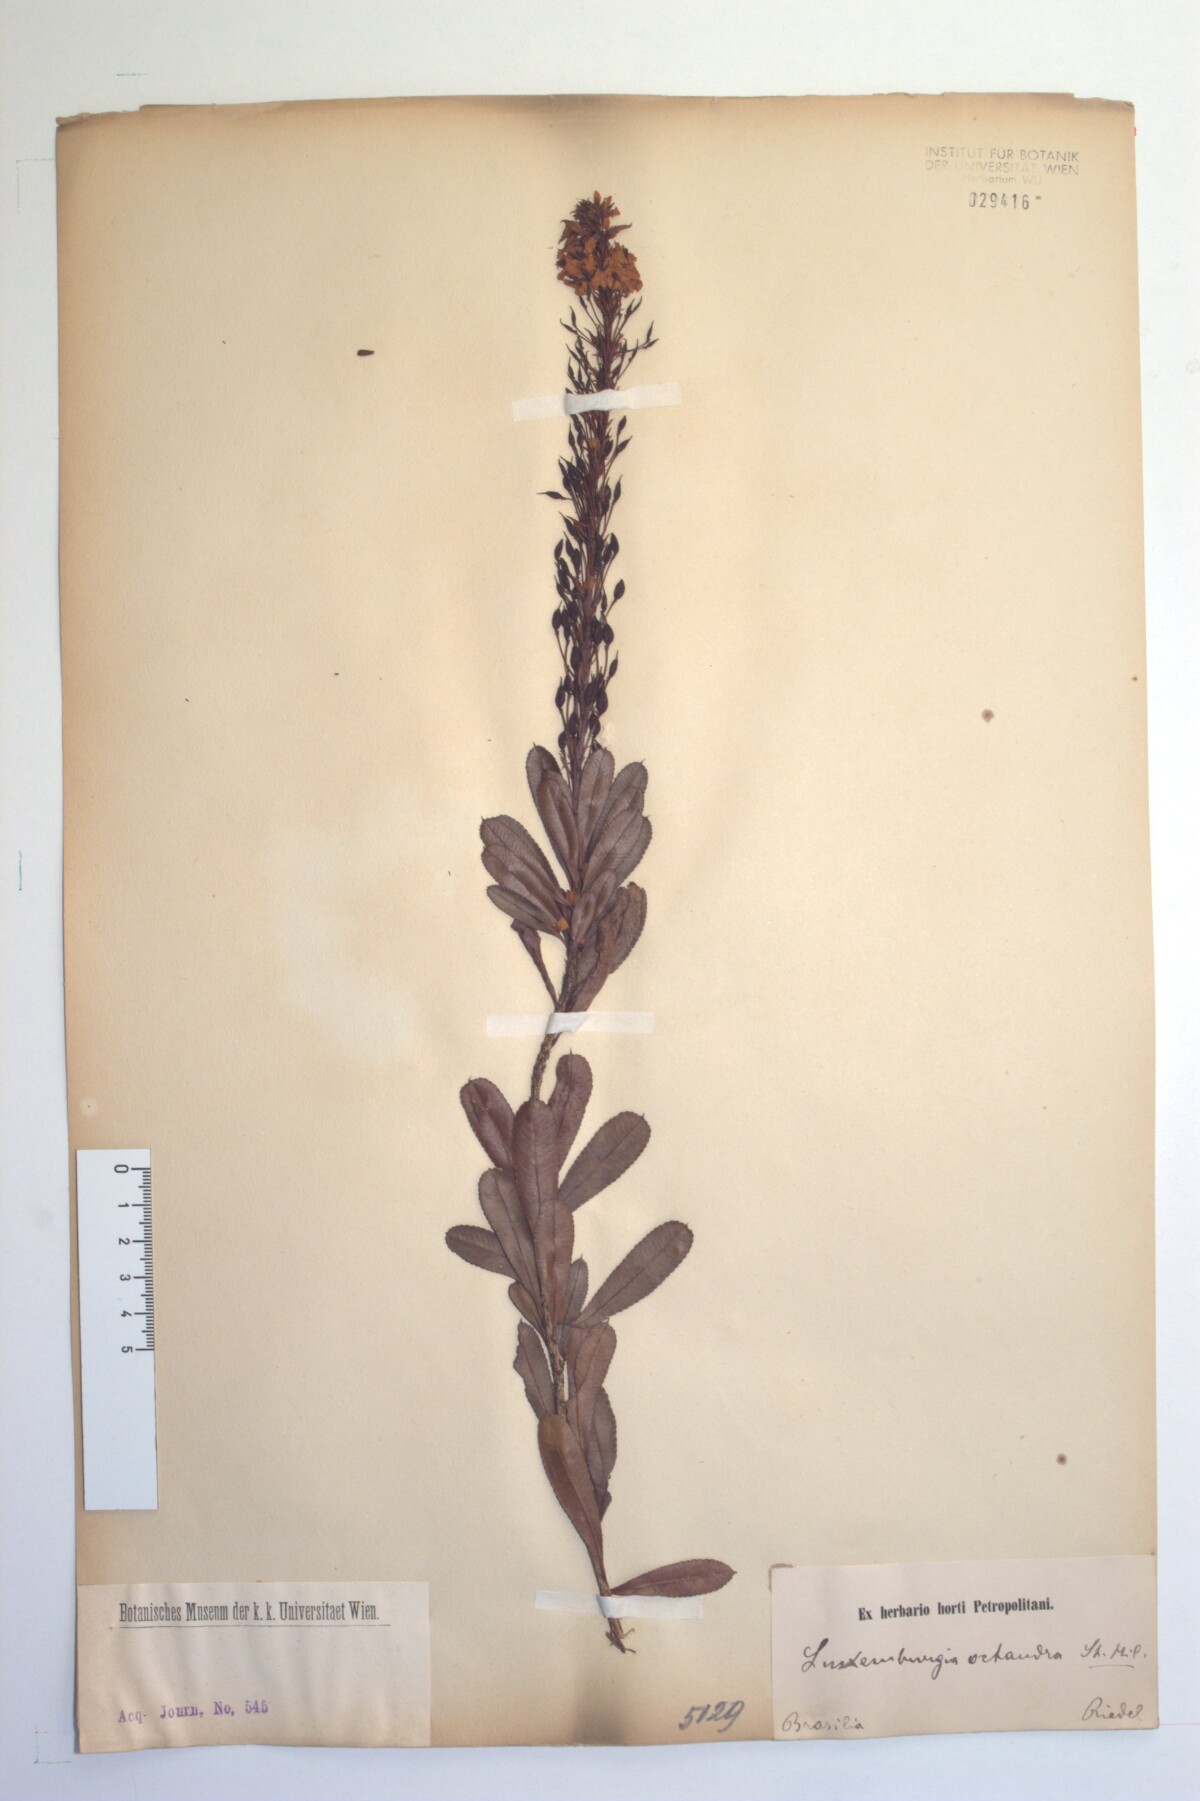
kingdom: Plantae
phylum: Tracheophyta
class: Magnoliopsida
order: Malpighiales
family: Ochnaceae
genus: Luxemburgia
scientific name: Luxemburgia octandra
